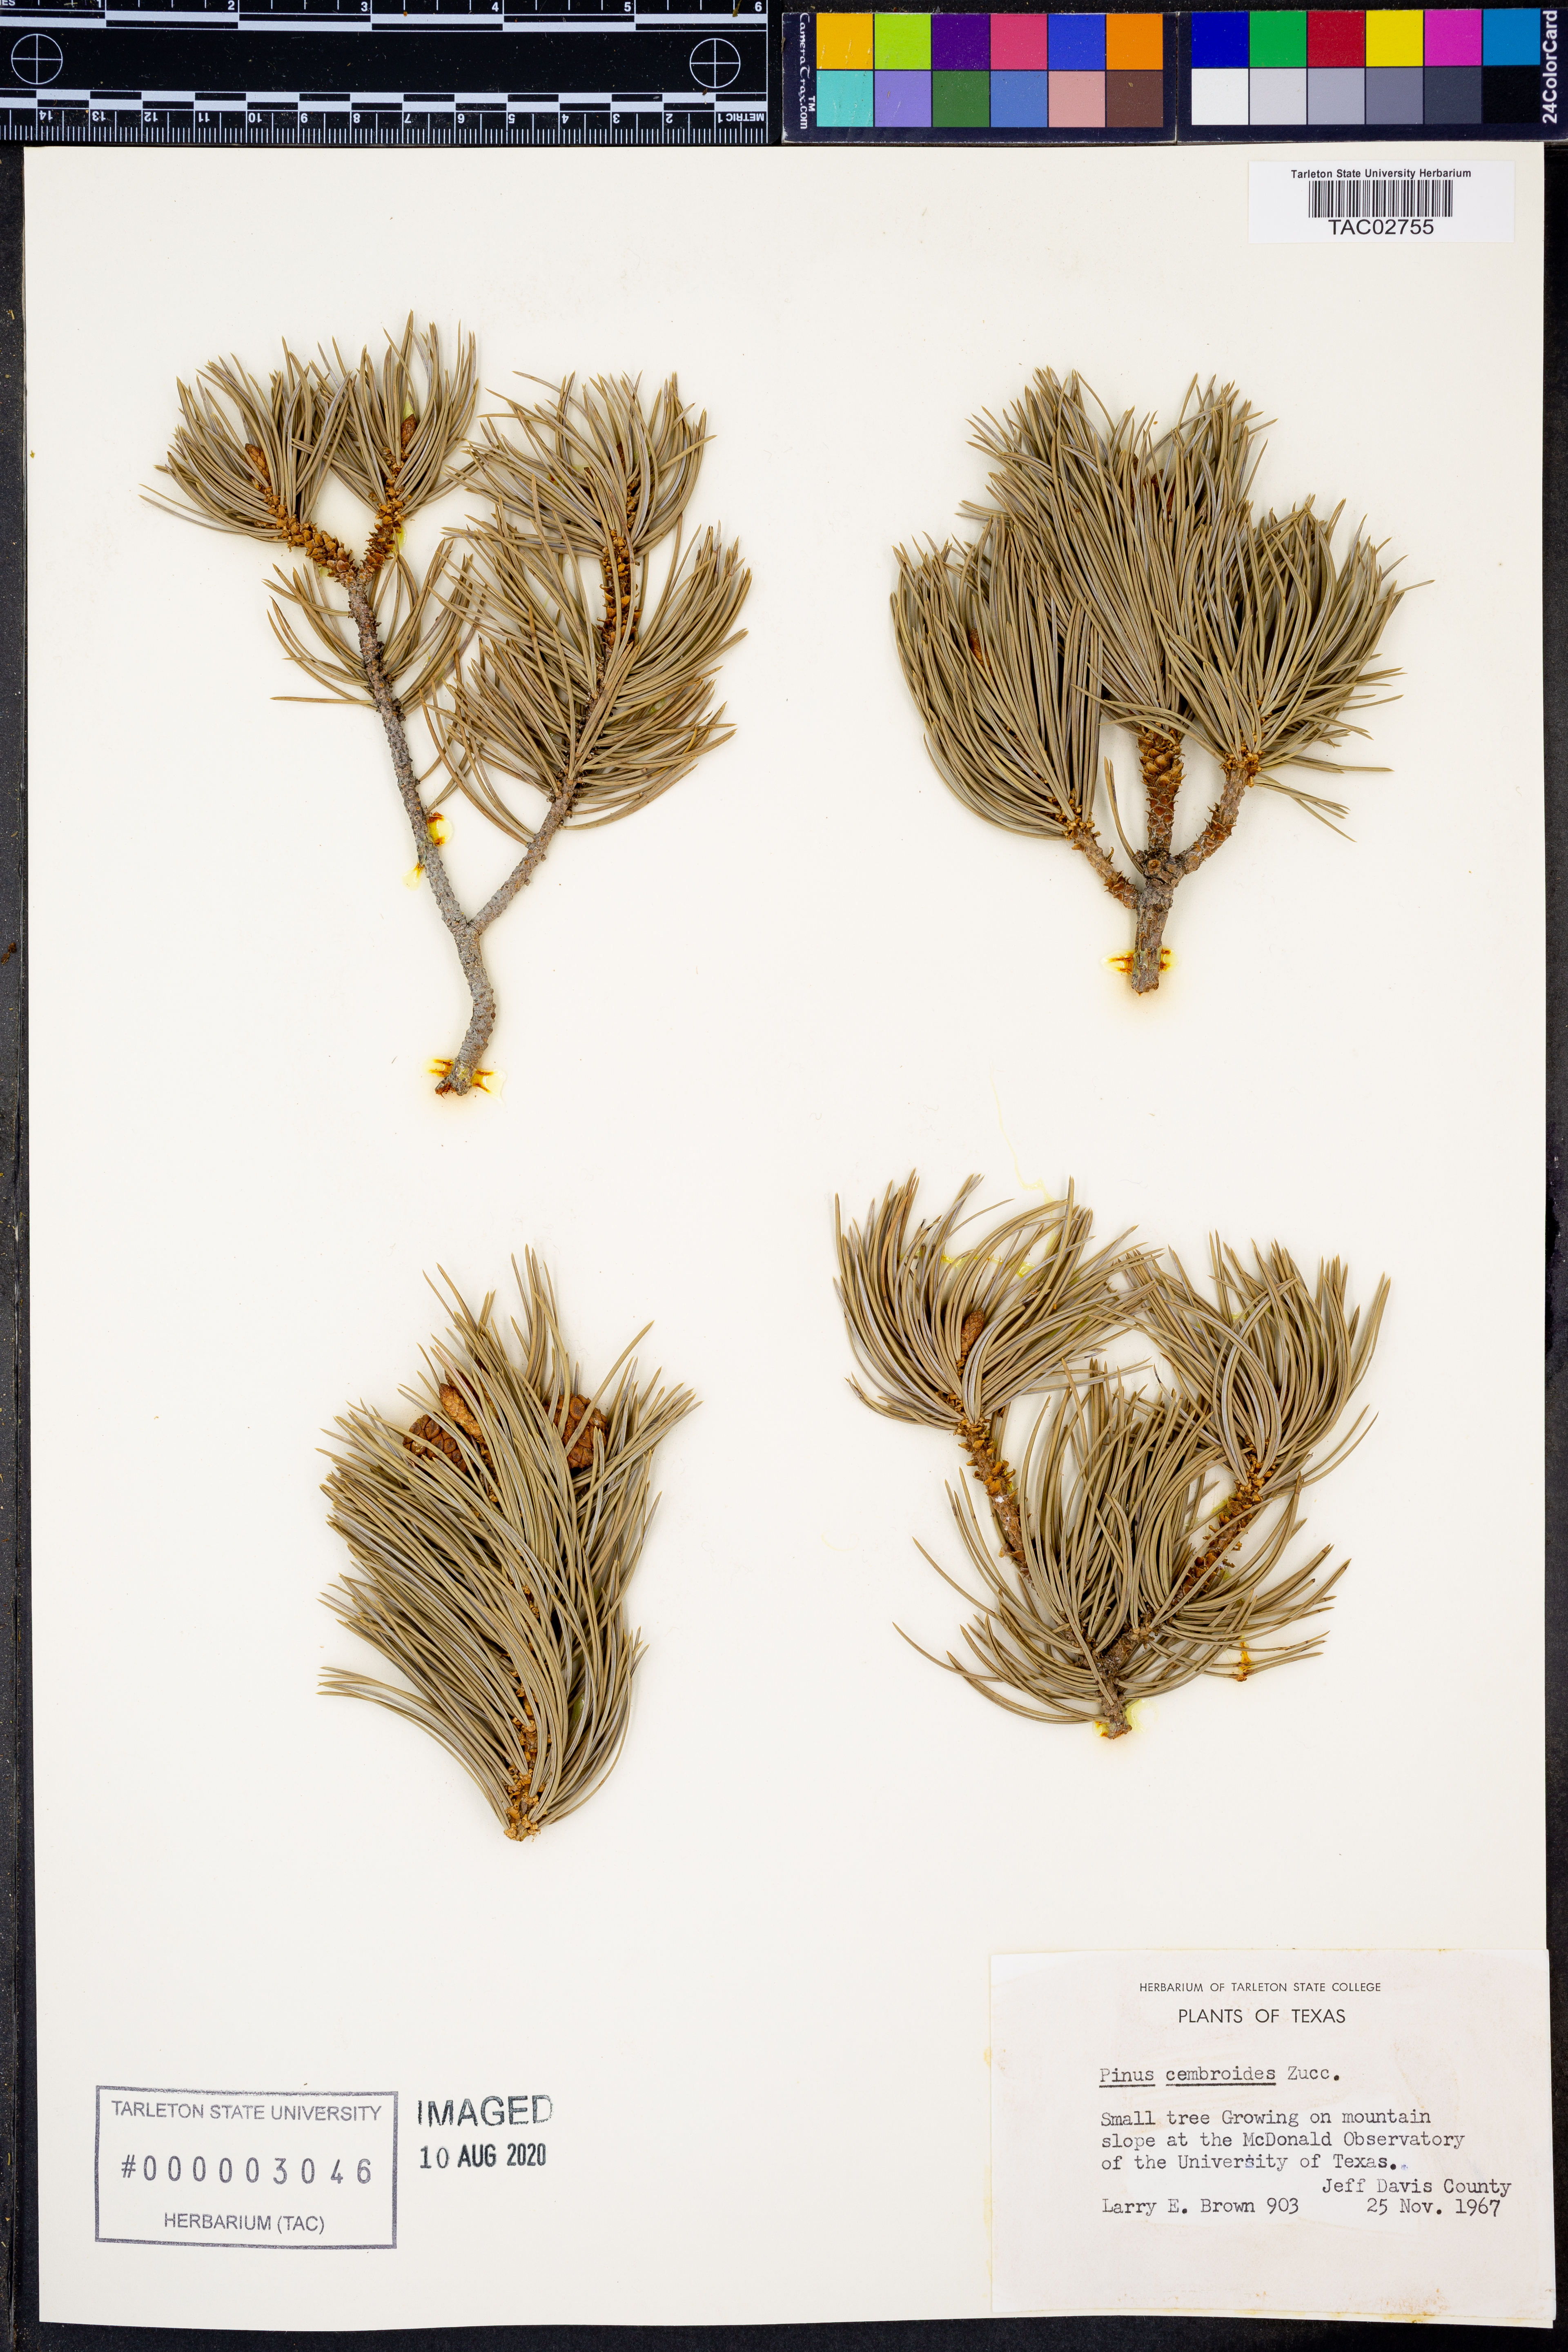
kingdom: Plantae
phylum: Tracheophyta
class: Pinopsida
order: Pinales
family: Pinaceae
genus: Pinus
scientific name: Pinus cembroides
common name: Mexican nut pine
